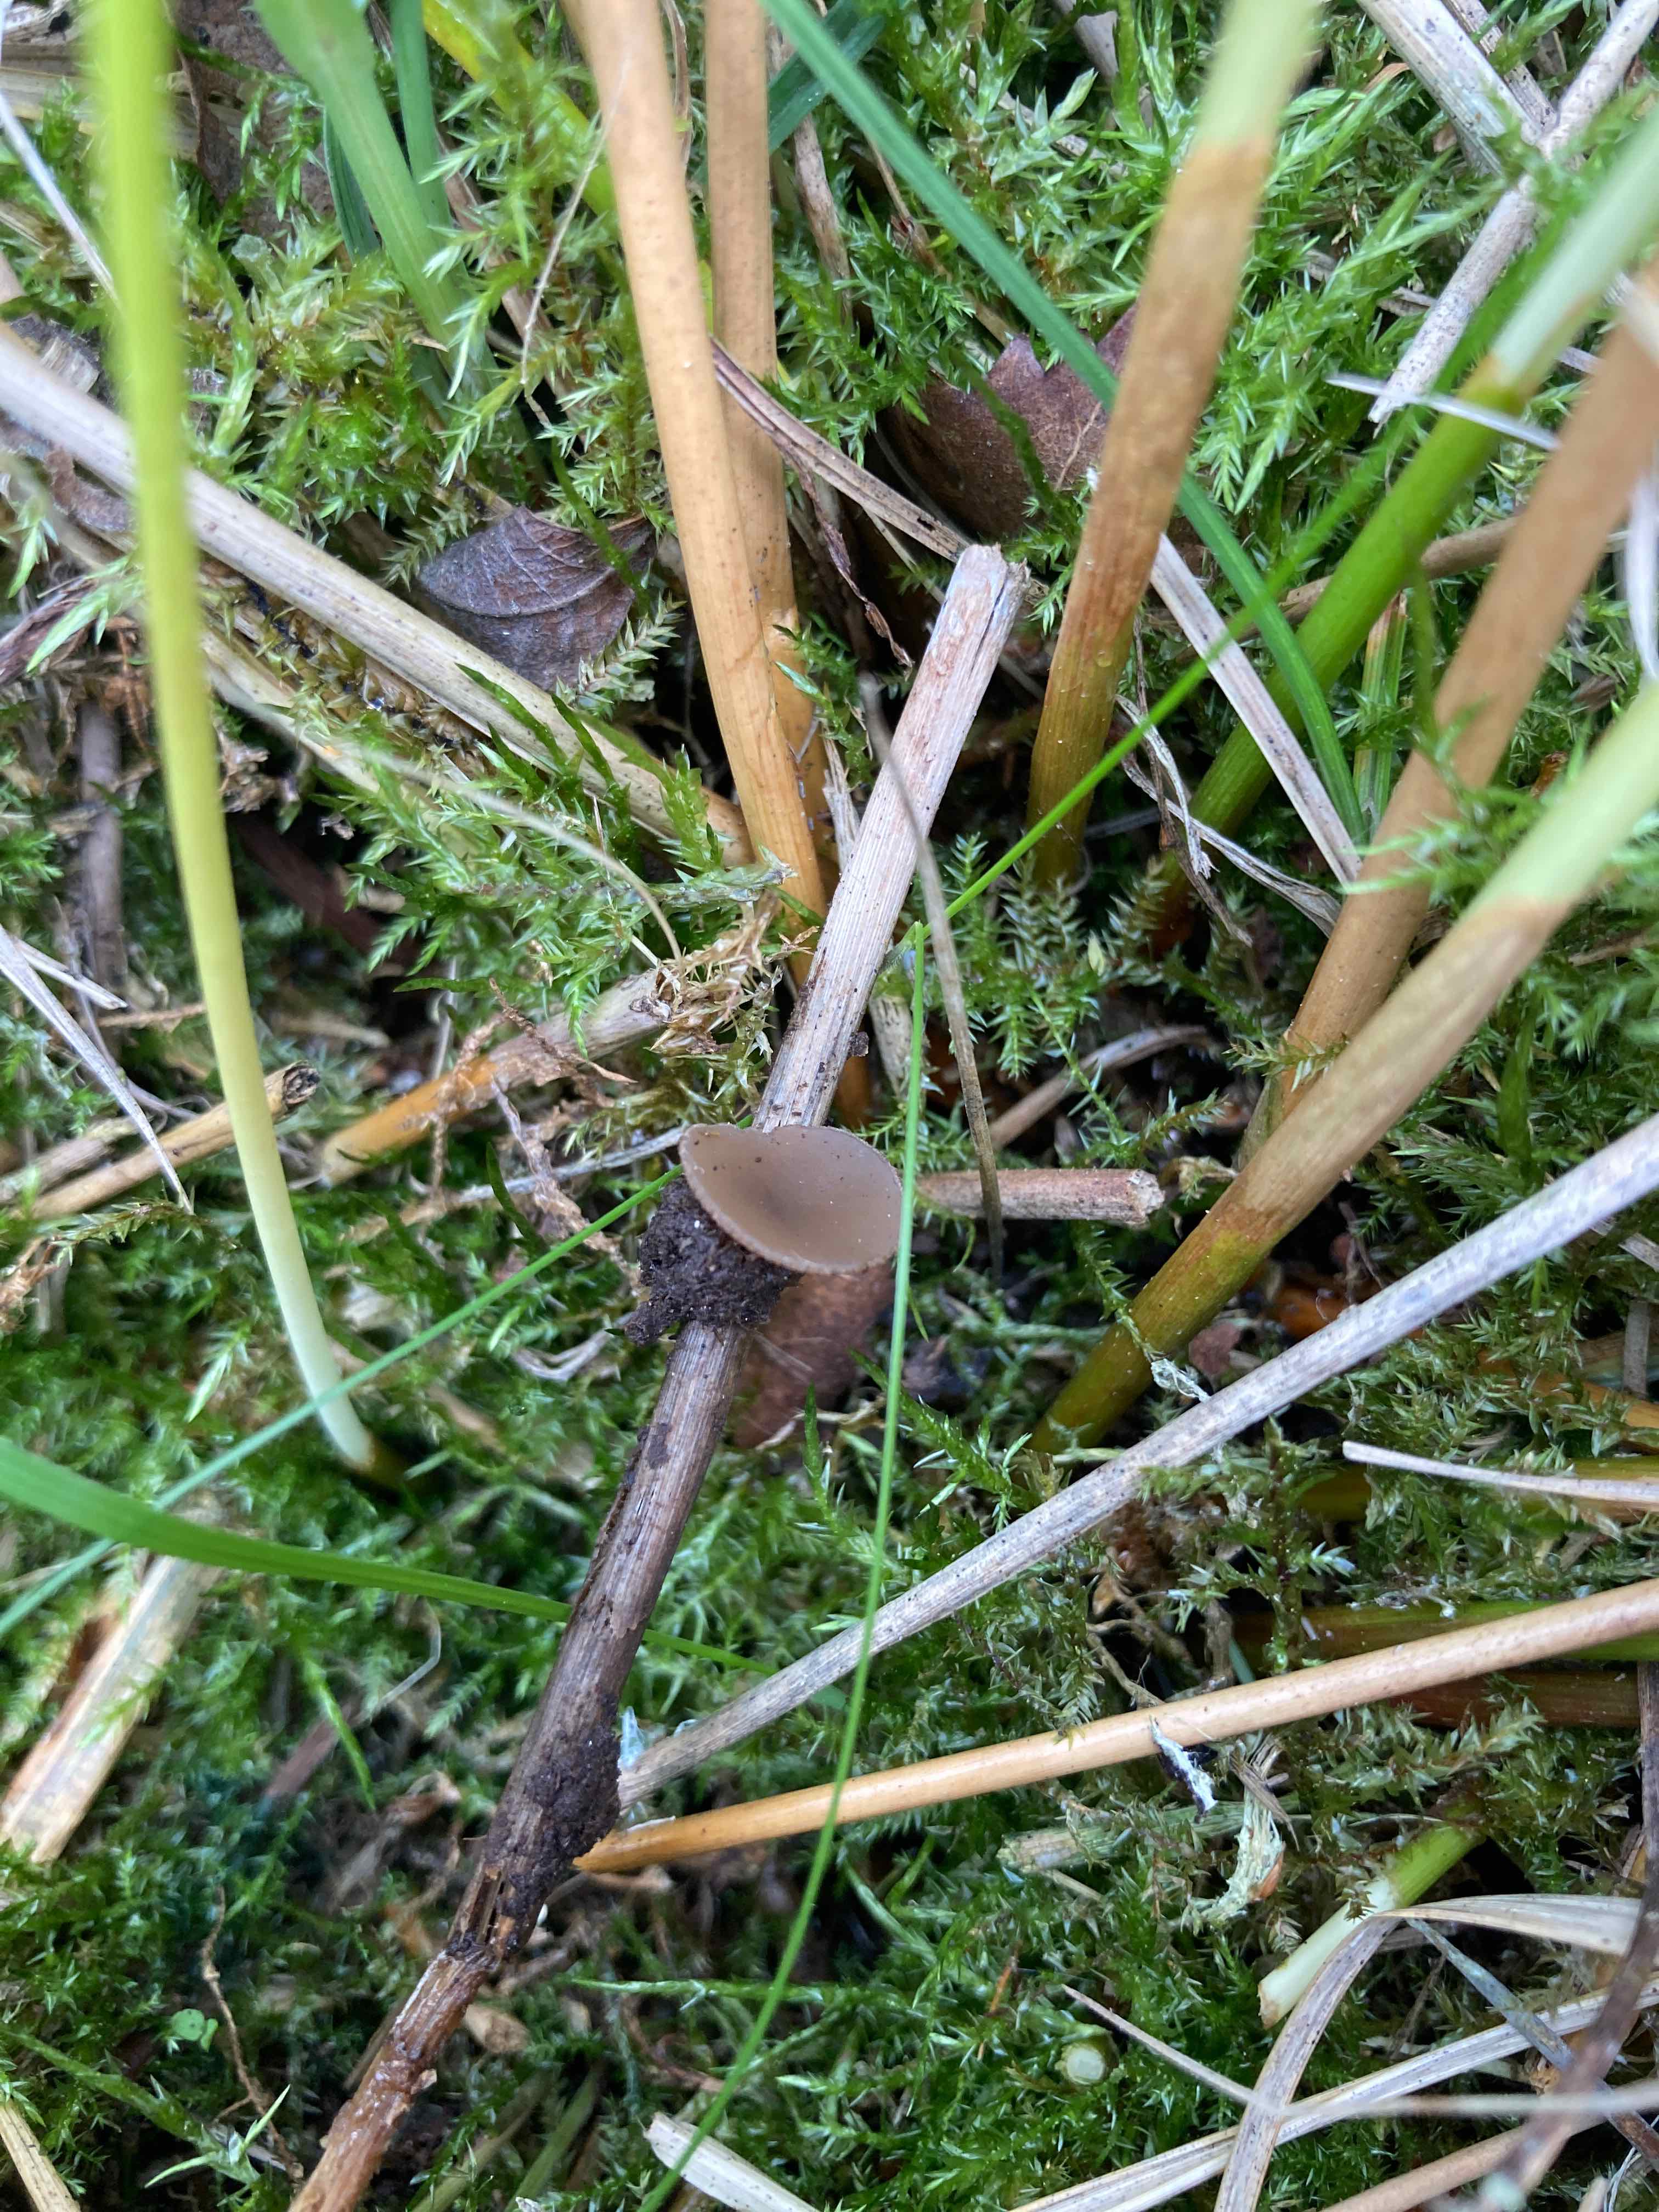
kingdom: Fungi
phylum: Ascomycota
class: Pezizomycetes
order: Pezizales
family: Pezizaceae
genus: Peziza
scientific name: Peziza fimeti
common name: møg-bægersvamp
